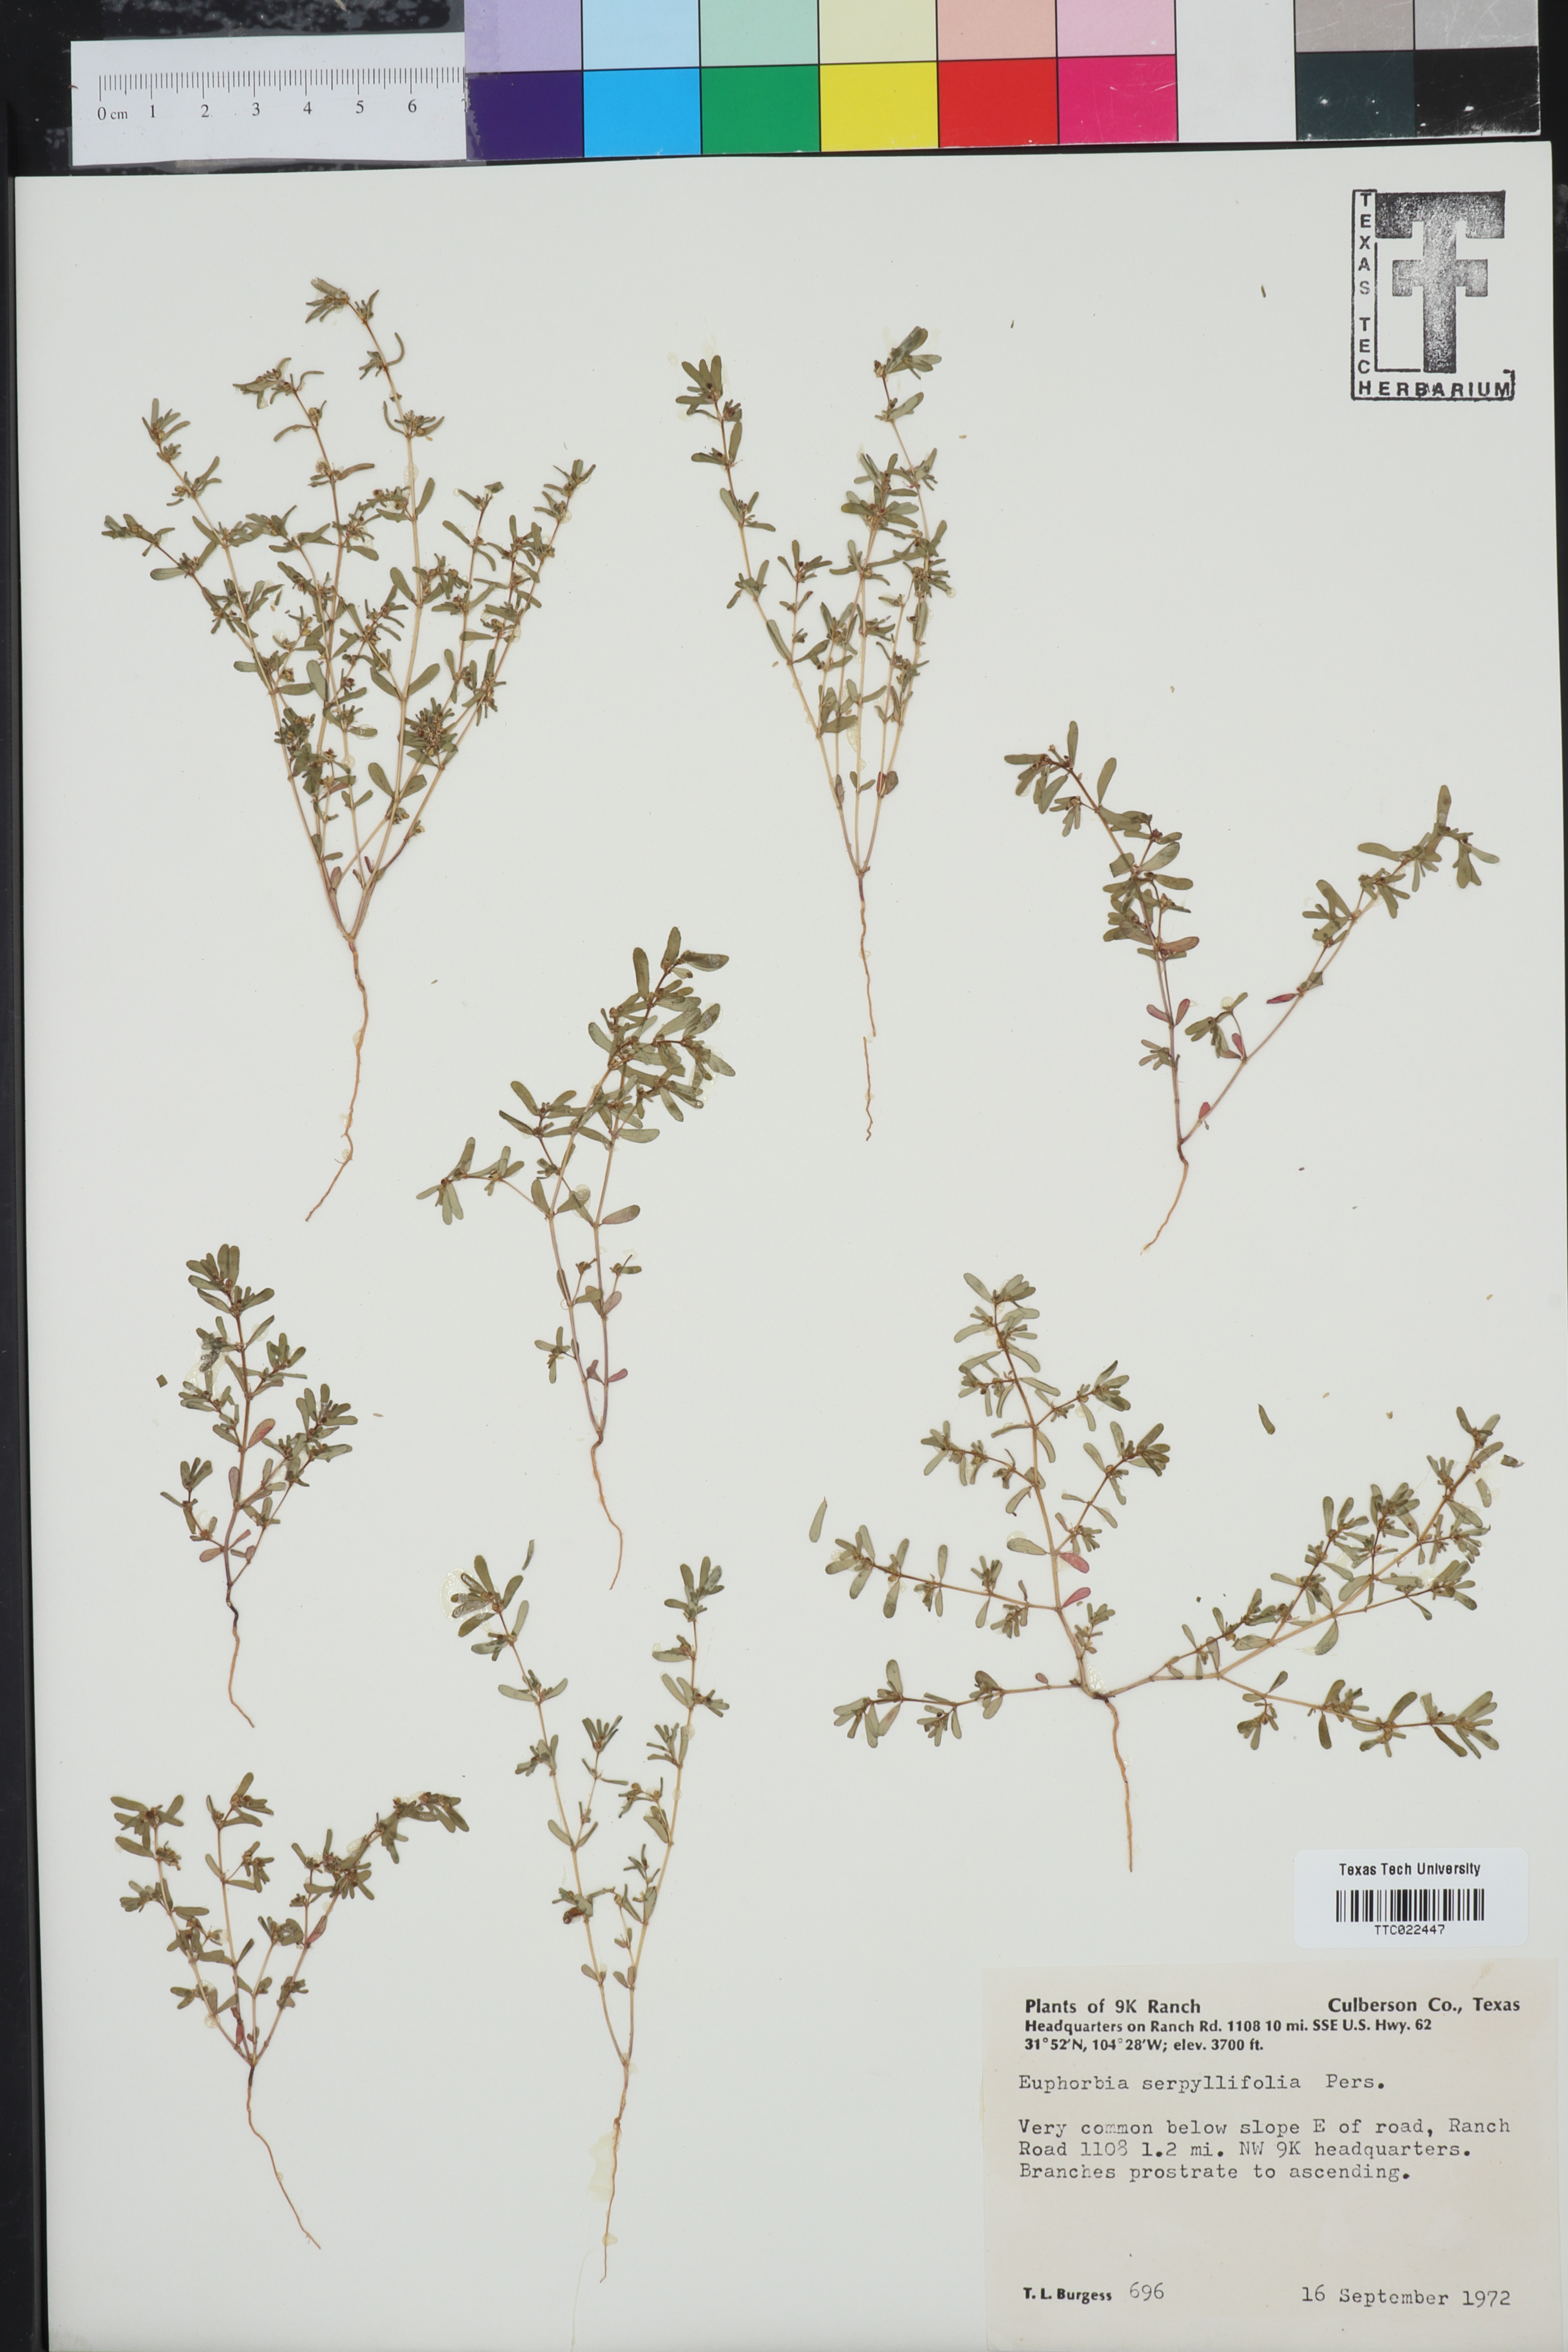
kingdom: Plantae
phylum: Tracheophyta
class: Magnoliopsida
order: Malpighiales
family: Euphorbiaceae
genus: Euphorbia
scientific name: Euphorbia serpillifolia
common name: Thyme-leaf spurge
